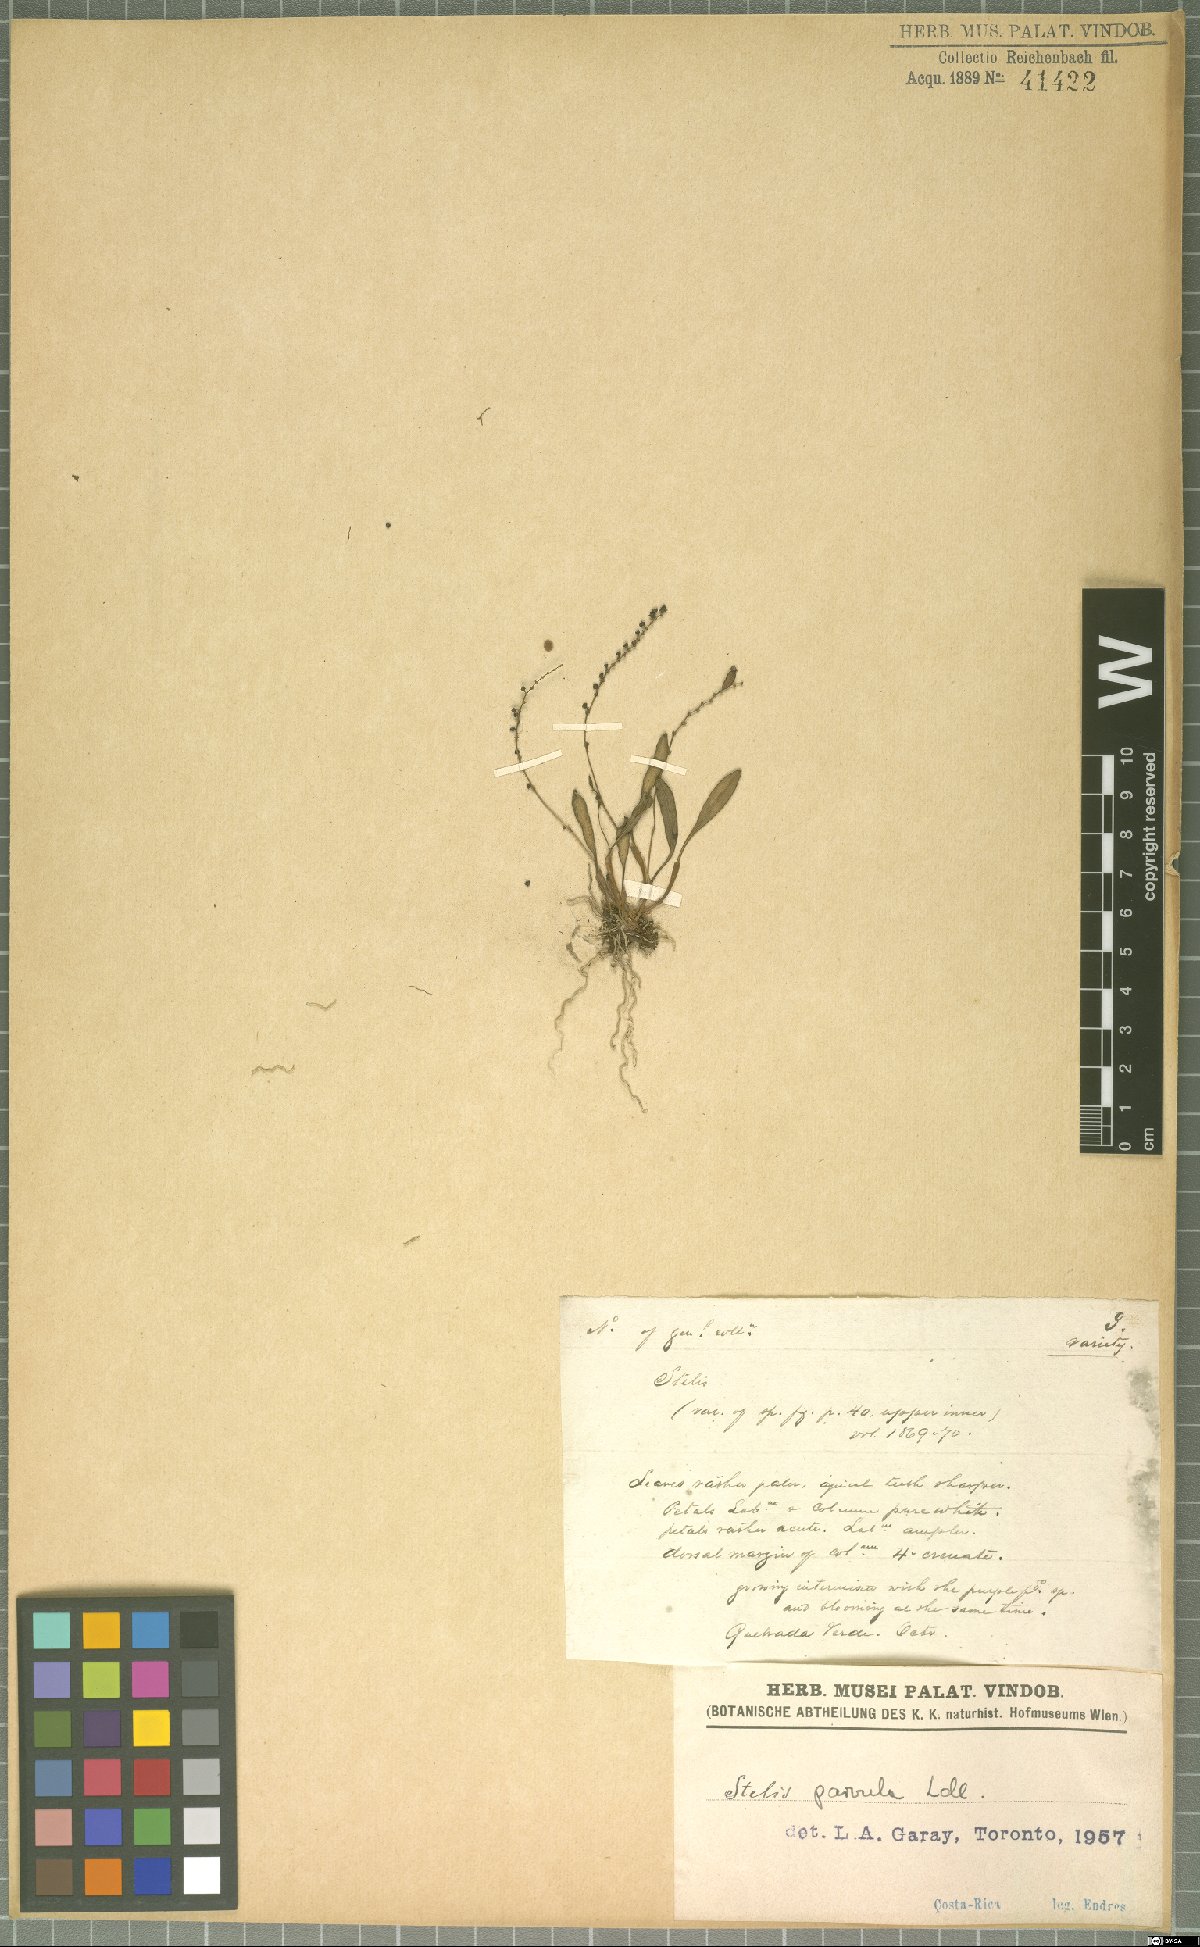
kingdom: Plantae
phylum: Tracheophyta
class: Liliopsida
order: Asparagales
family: Orchidaceae
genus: Stelis
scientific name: Stelis parvula
